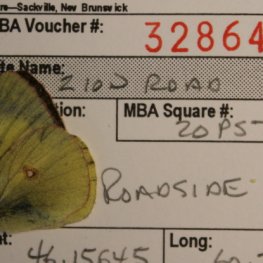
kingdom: Animalia
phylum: Arthropoda
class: Insecta
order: Lepidoptera
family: Pieridae
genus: Colias
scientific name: Colias philodice
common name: Clouded Sulphur
